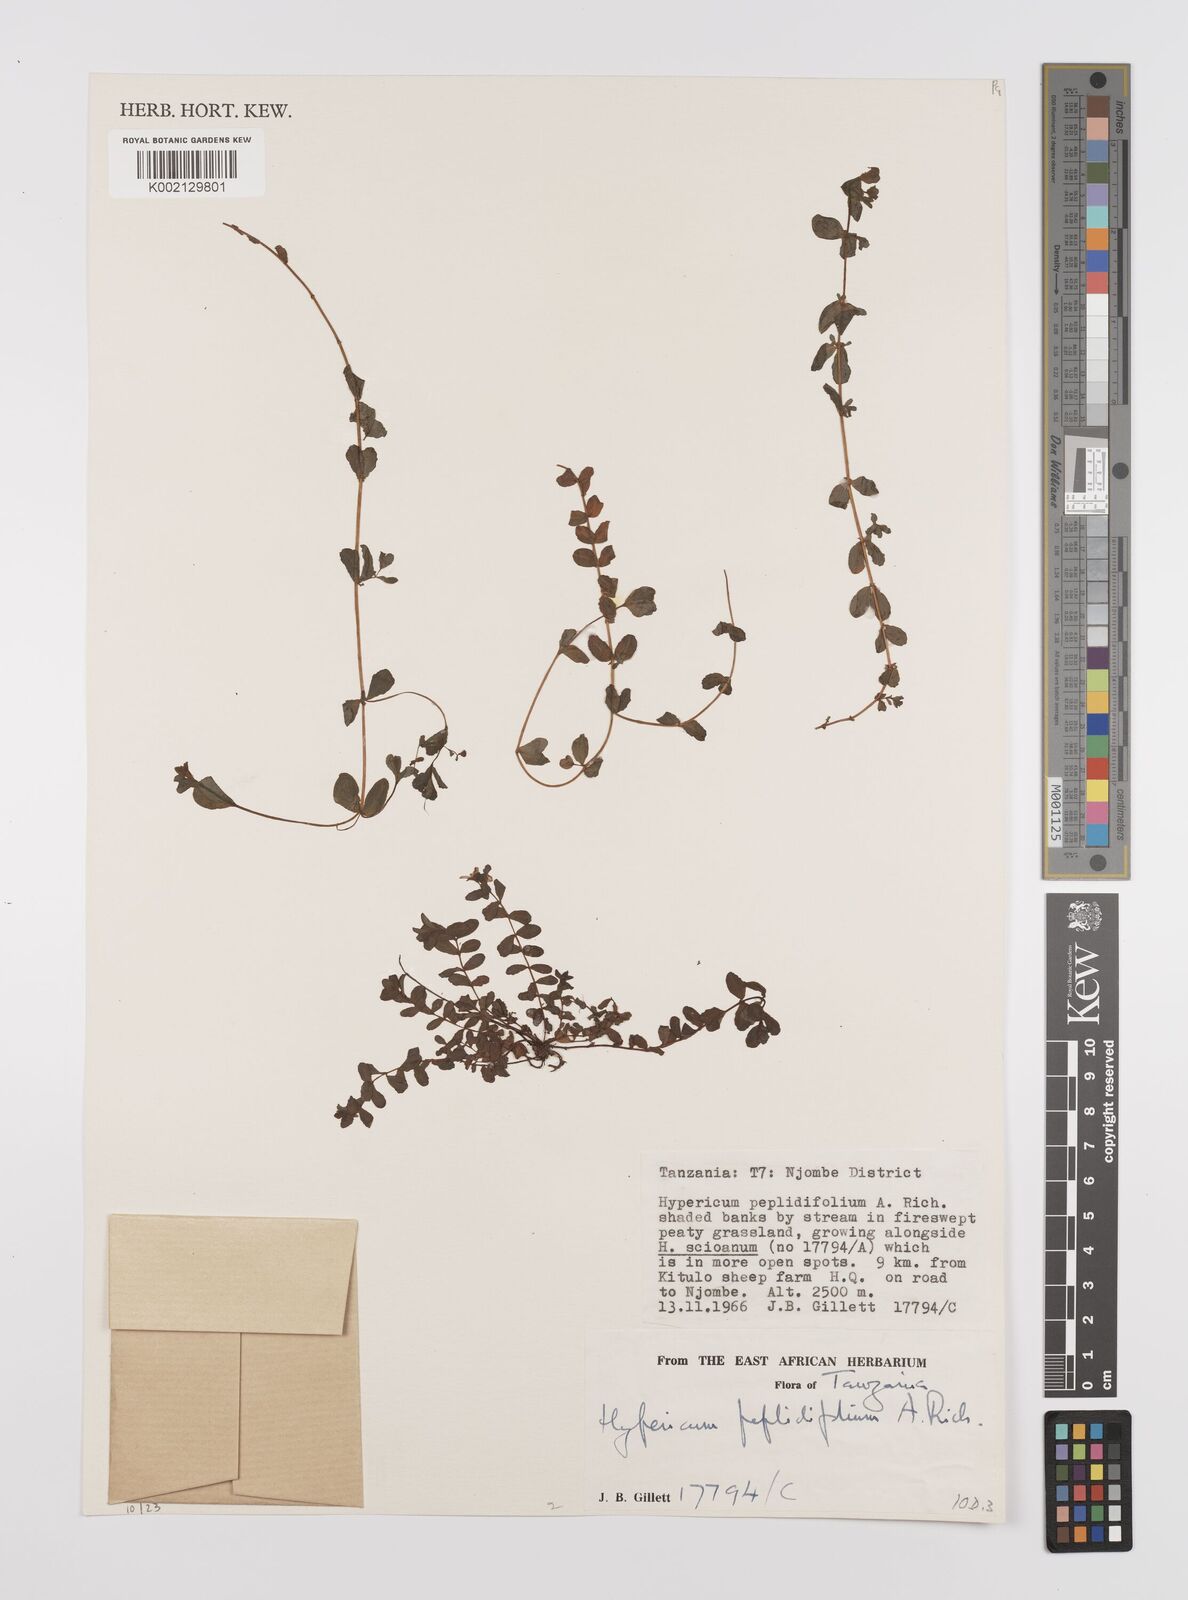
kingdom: Plantae
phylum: Tracheophyta
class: Magnoliopsida
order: Malpighiales
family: Hypericaceae
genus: Hypericum
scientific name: Hypericum peplidifolium
